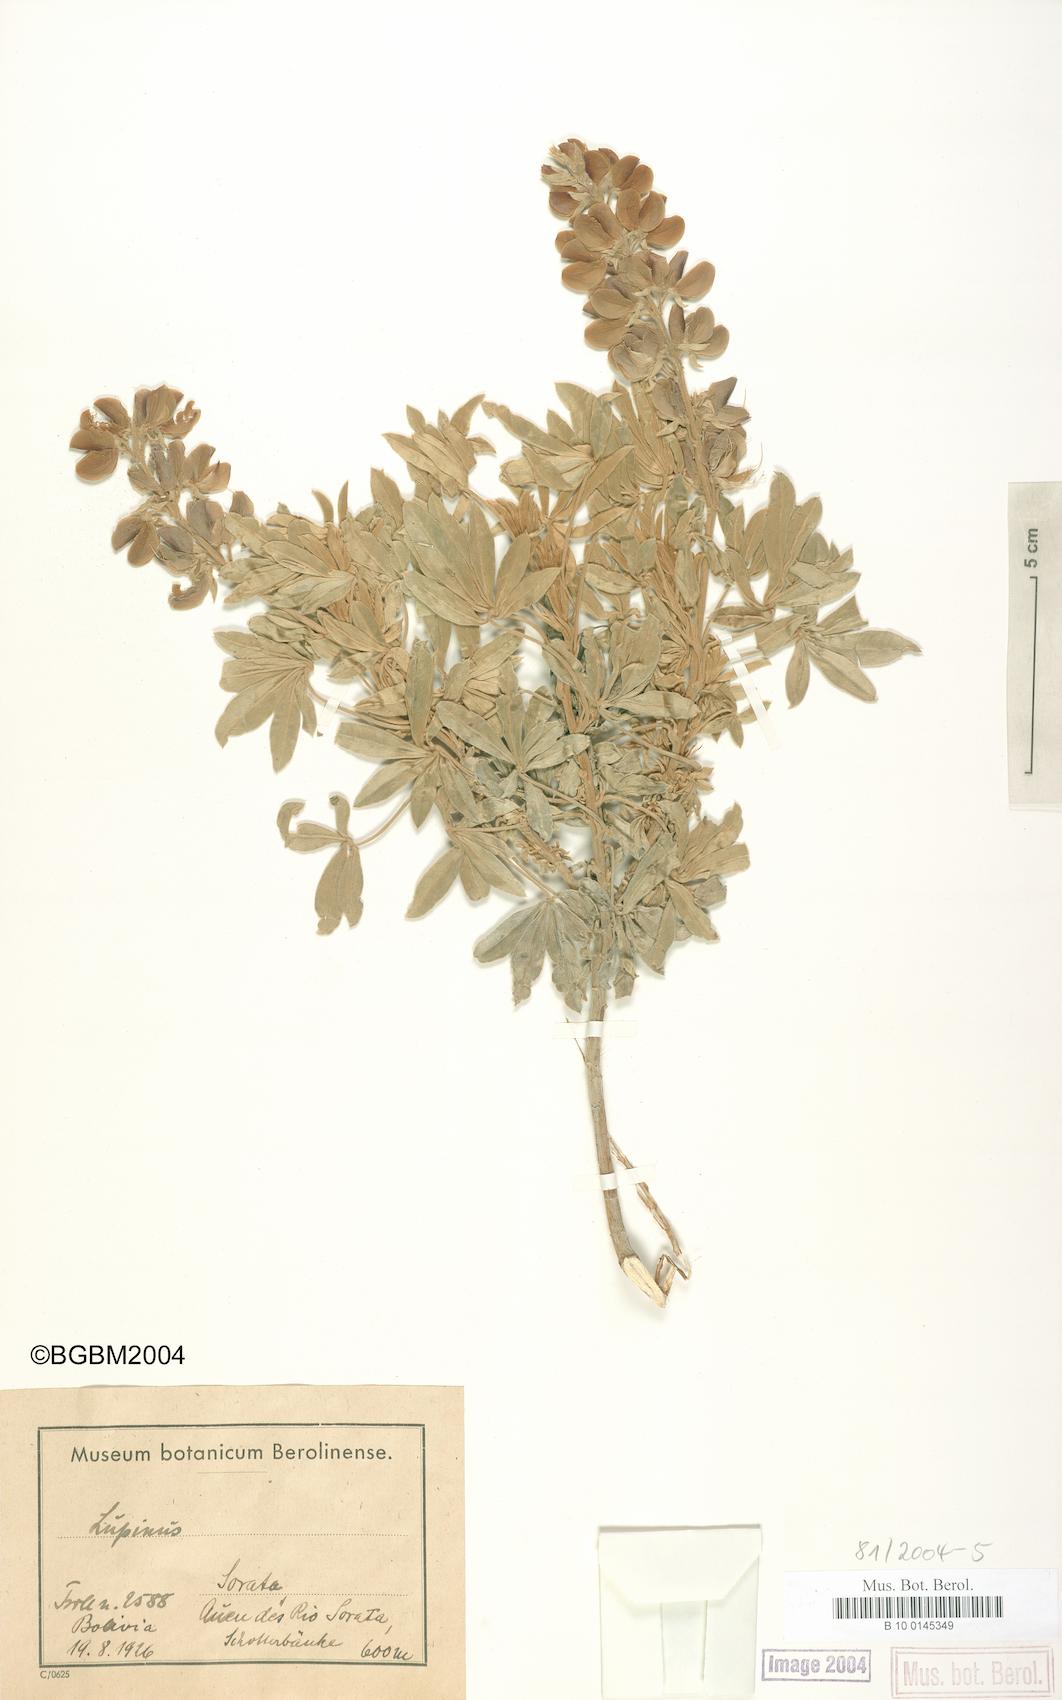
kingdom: Plantae
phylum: Tracheophyta
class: Magnoliopsida
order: Fabales
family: Fabaceae
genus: Lupinus
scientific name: Lupinus
